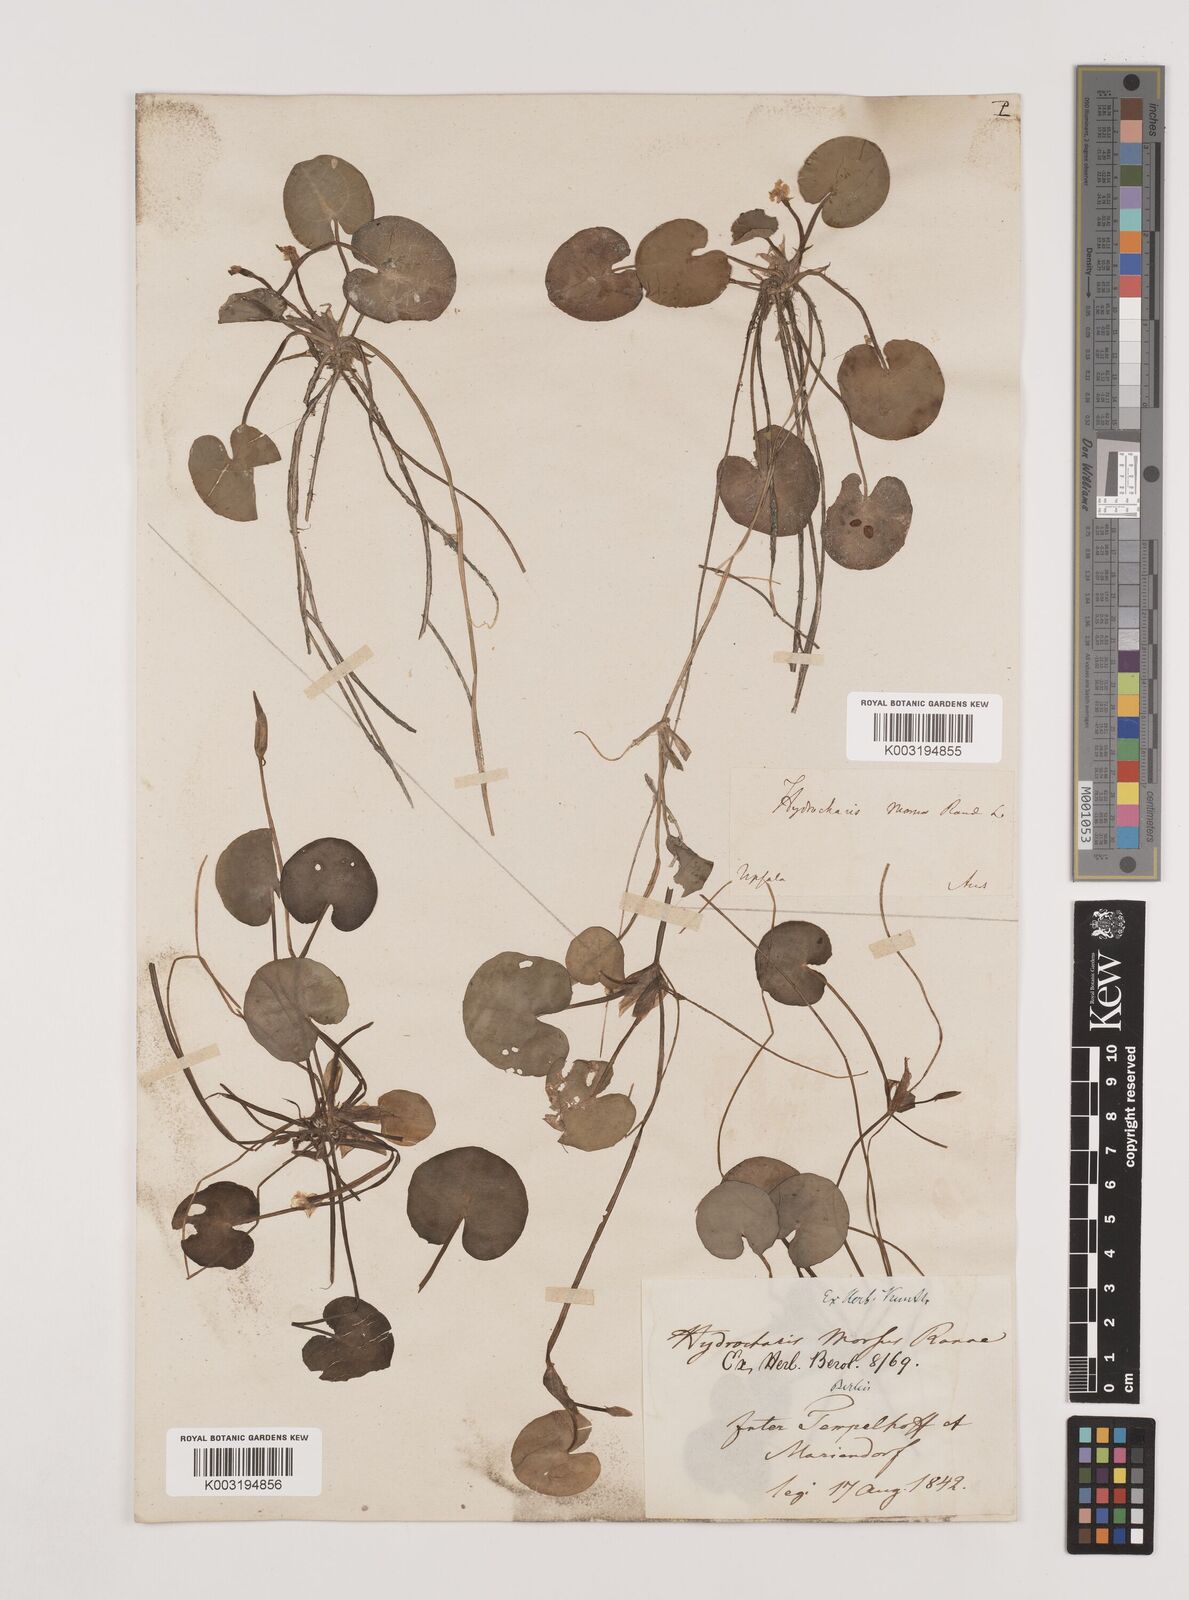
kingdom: Plantae
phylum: Tracheophyta
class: Liliopsida
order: Alismatales
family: Hydrocharitaceae
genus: Hydrocharis
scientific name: Hydrocharis morsus-ranae
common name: Frogbit
